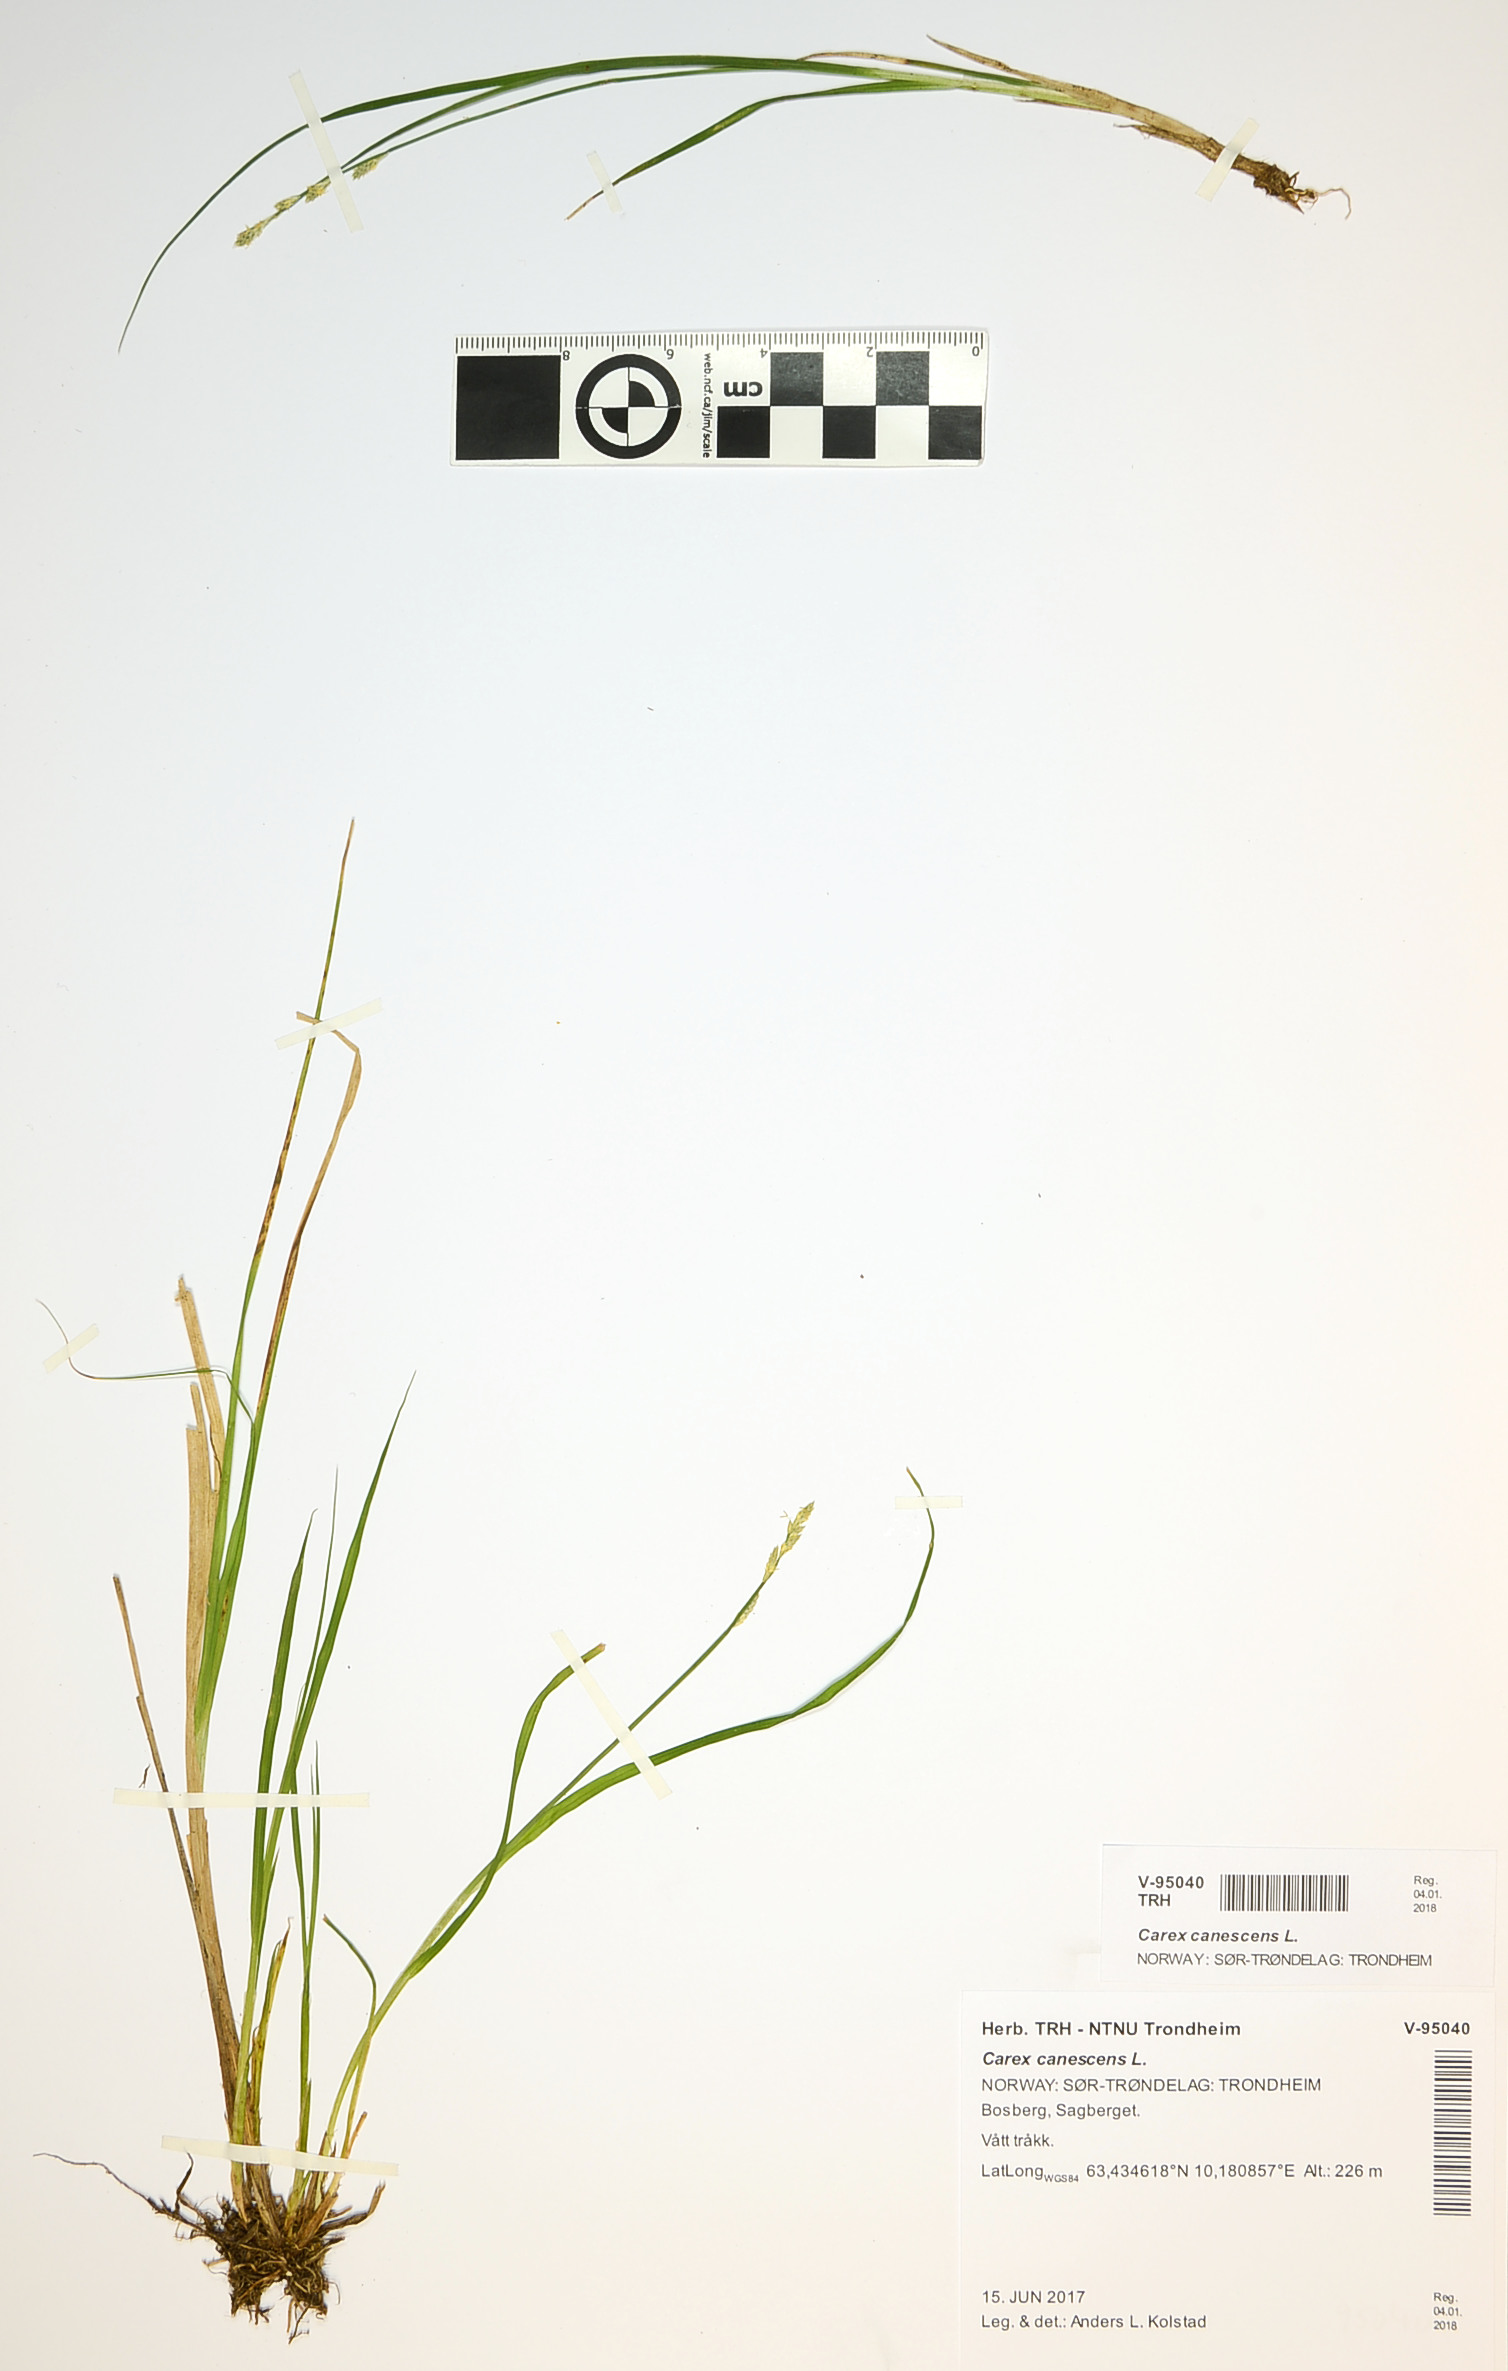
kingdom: Plantae
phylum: Tracheophyta
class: Liliopsida
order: Poales
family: Cyperaceae
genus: Carex
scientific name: Carex canescens
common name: White sedge
